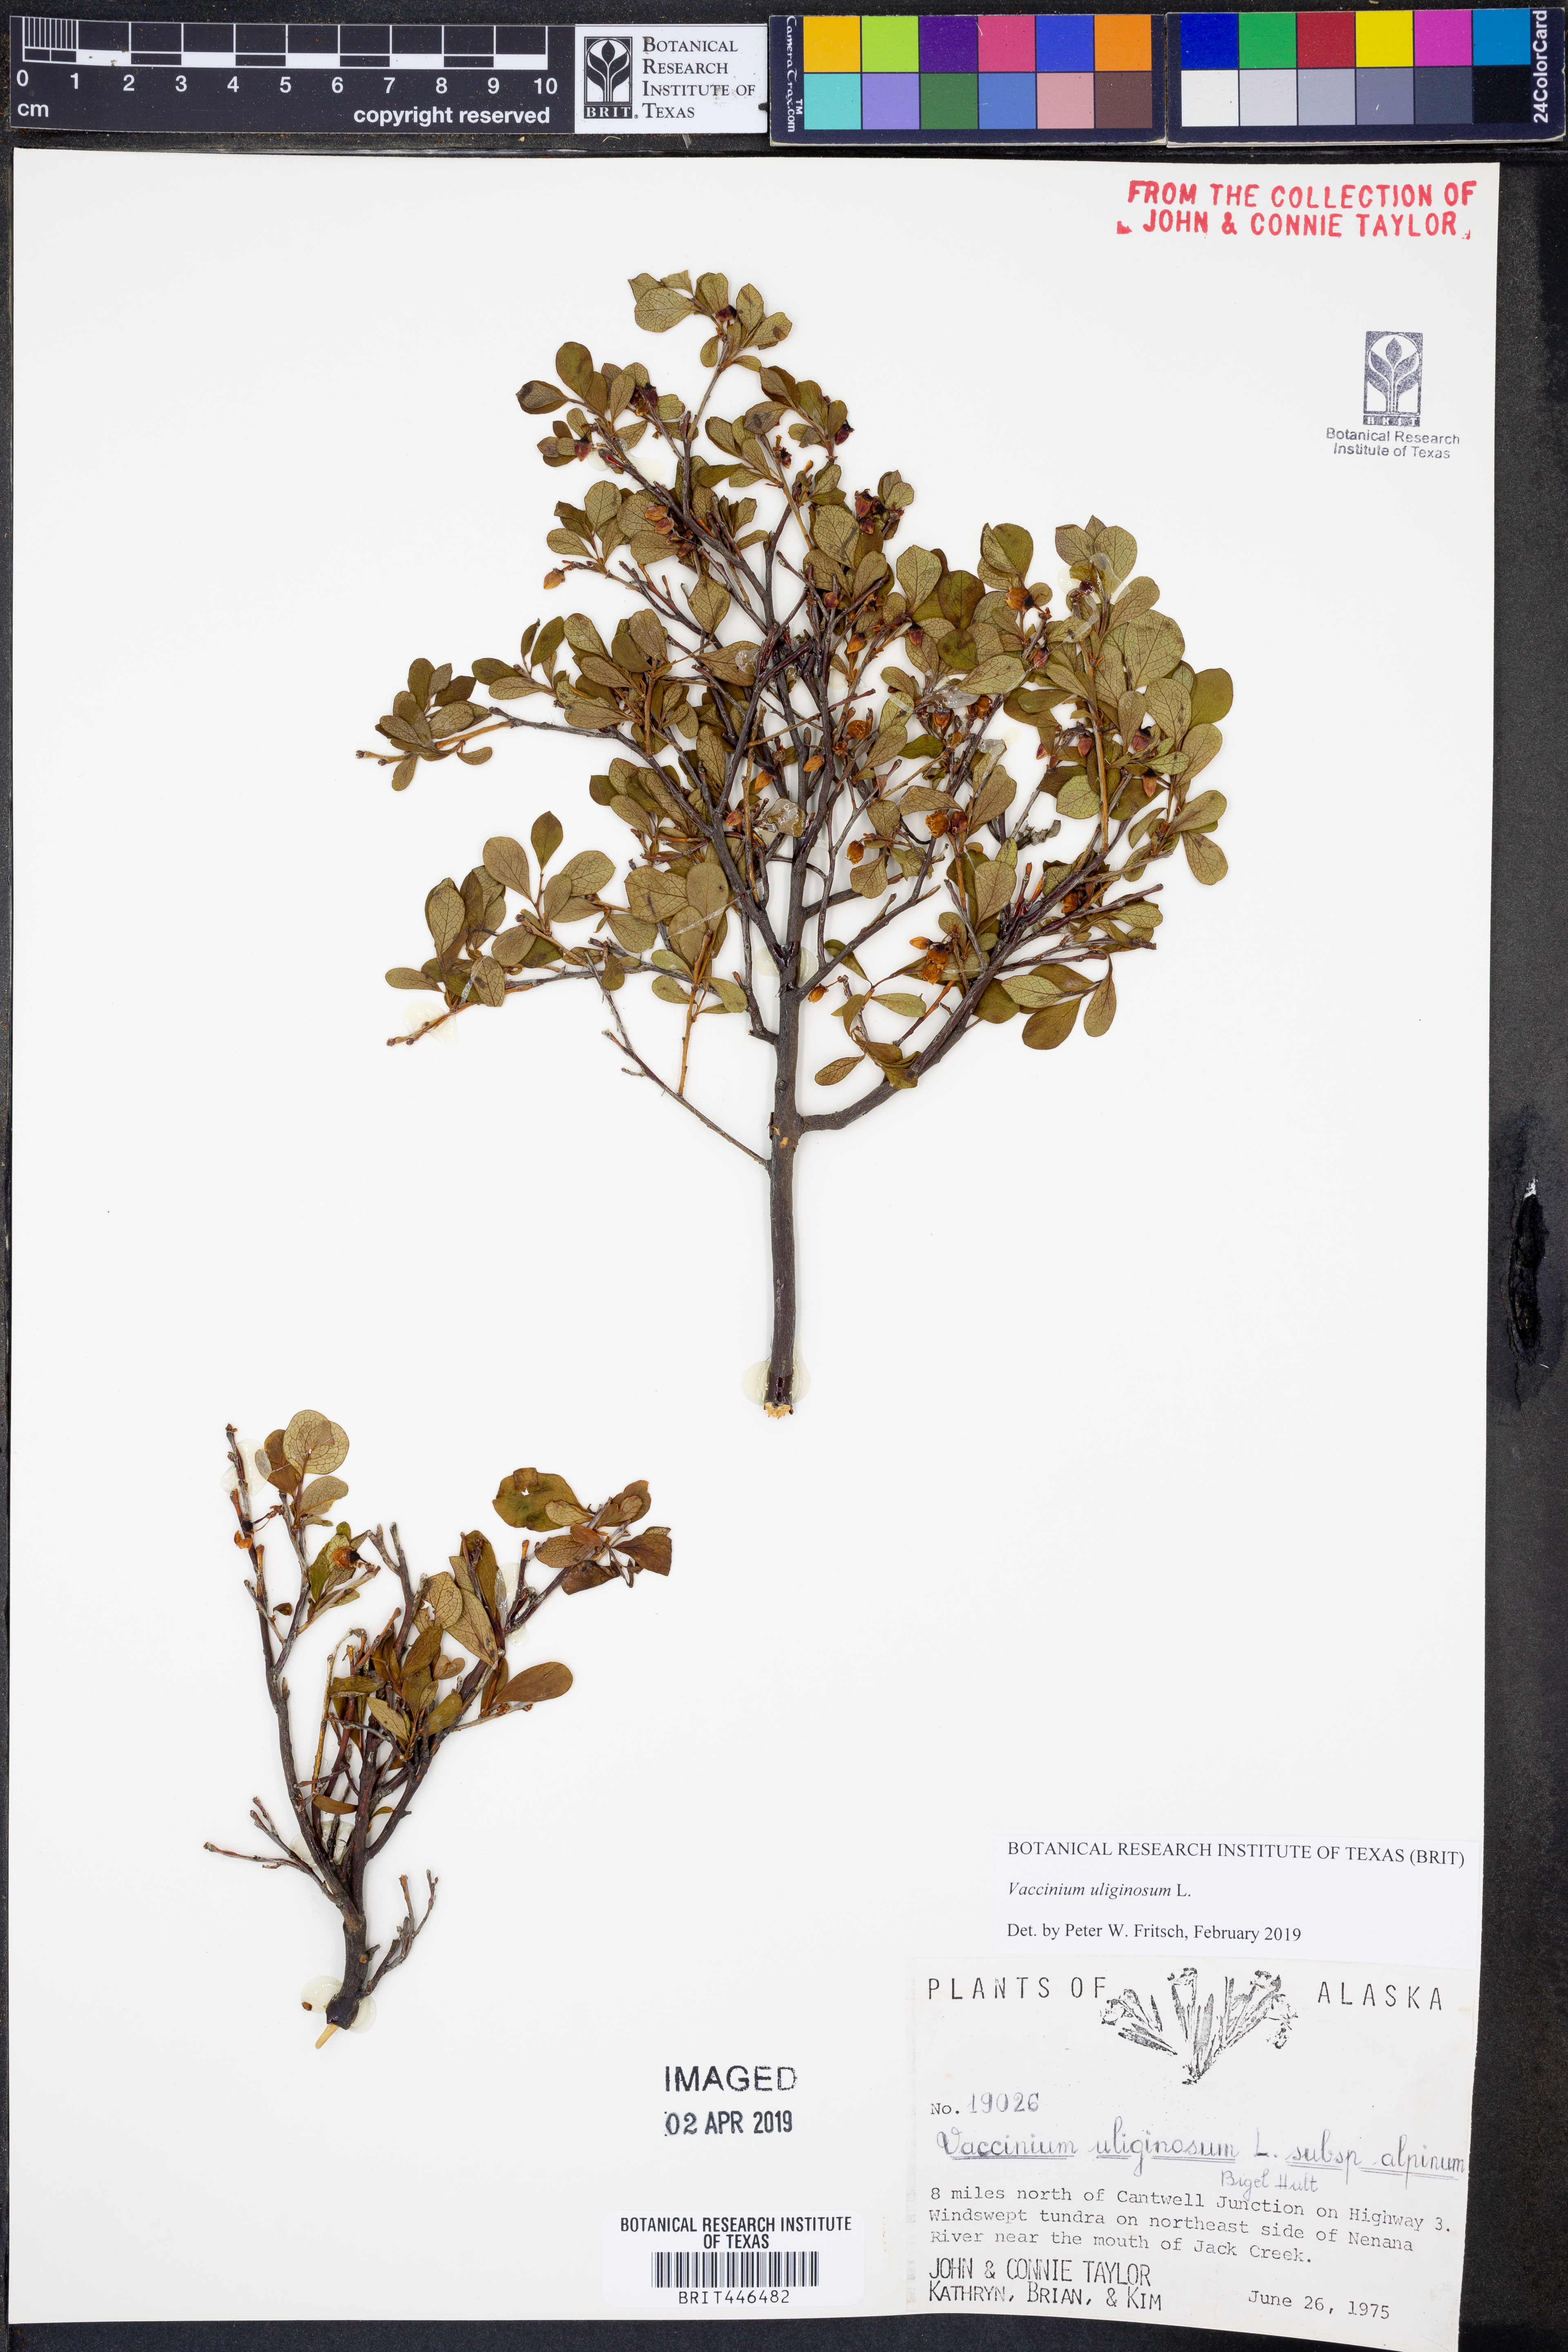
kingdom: Plantae
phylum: Tracheophyta
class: Magnoliopsida
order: Ericales
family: Ericaceae
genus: Vaccinium
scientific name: Vaccinium uliginosum
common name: Bog bilberry
